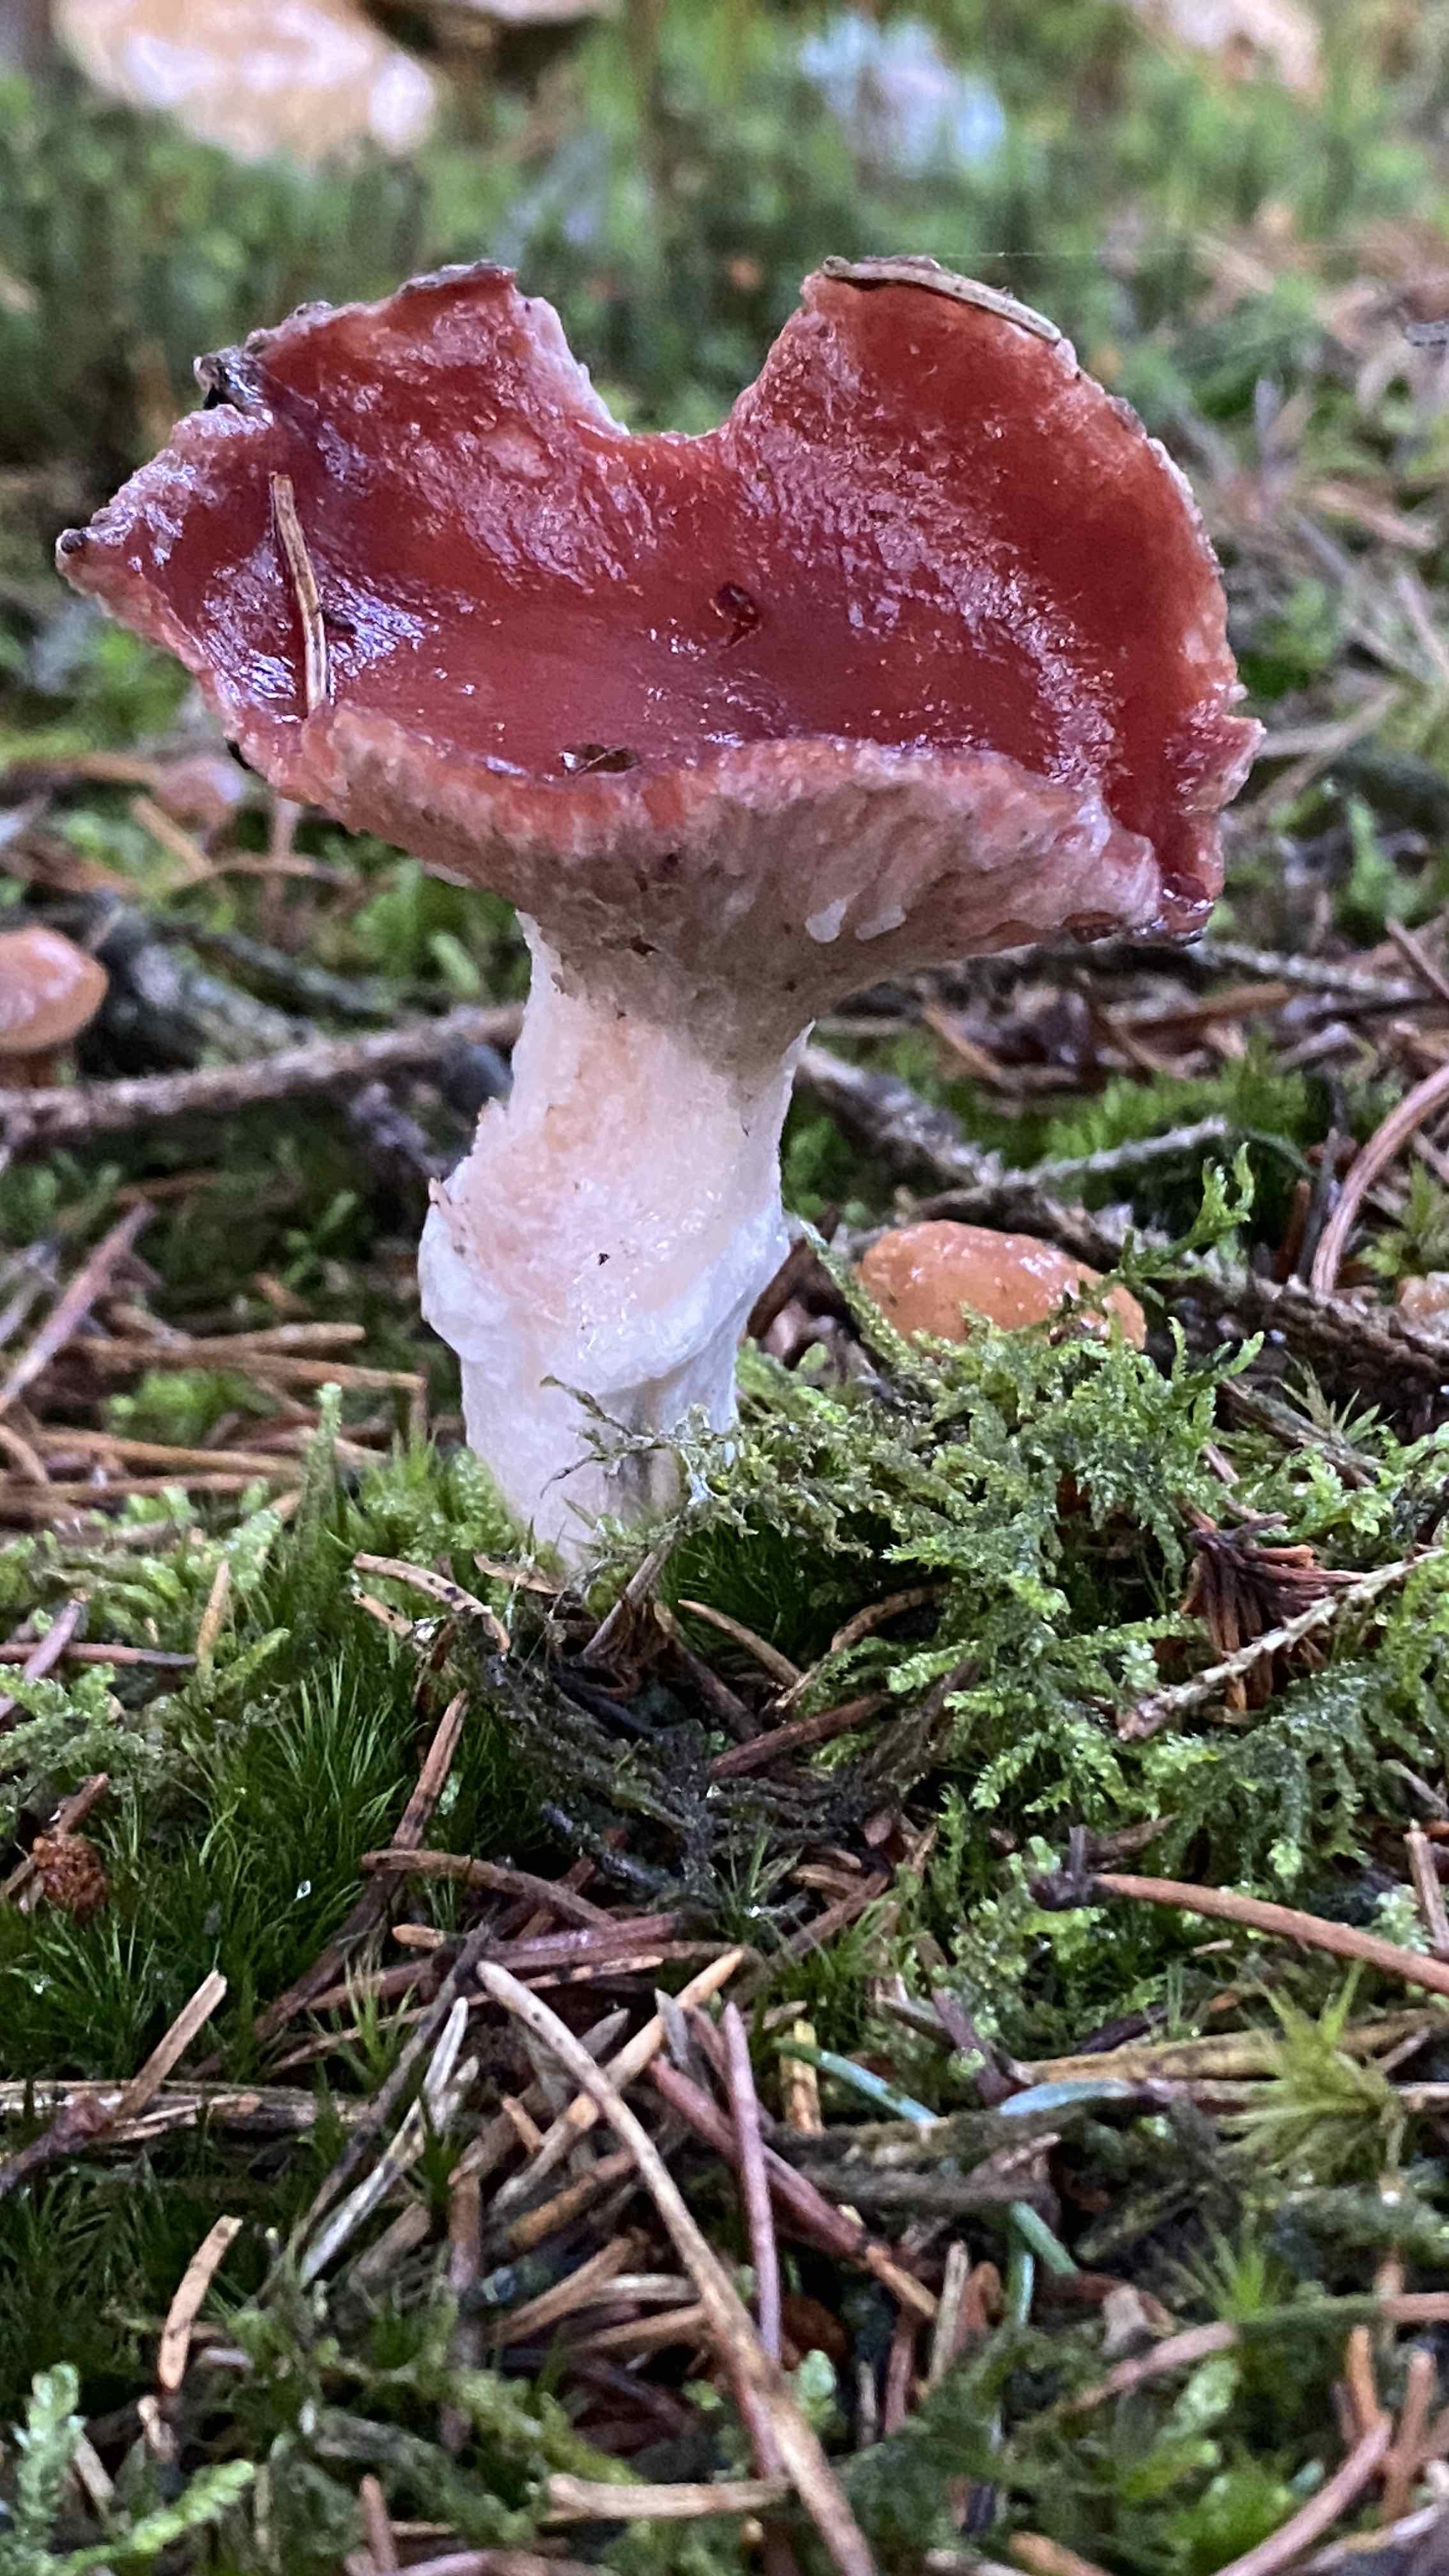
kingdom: Fungi
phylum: Basidiomycota
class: Agaricomycetes
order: Boletales
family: Gomphidiaceae
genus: Gomphidius
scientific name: Gomphidius roseus
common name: rosenrød slimslør
